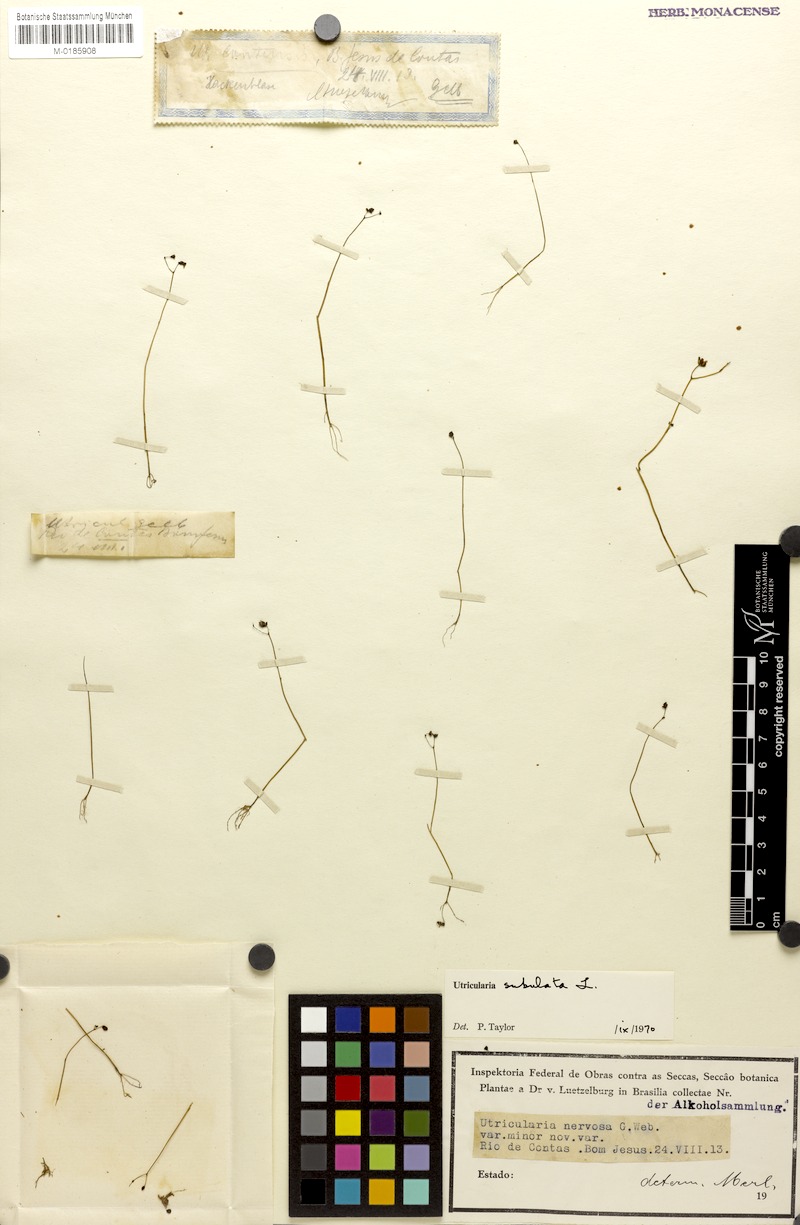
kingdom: Plantae
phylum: Tracheophyta
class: Magnoliopsida
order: Lamiales
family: Lentibulariaceae
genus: Utricularia
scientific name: Utricularia subulata
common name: Tiny bladderwort
